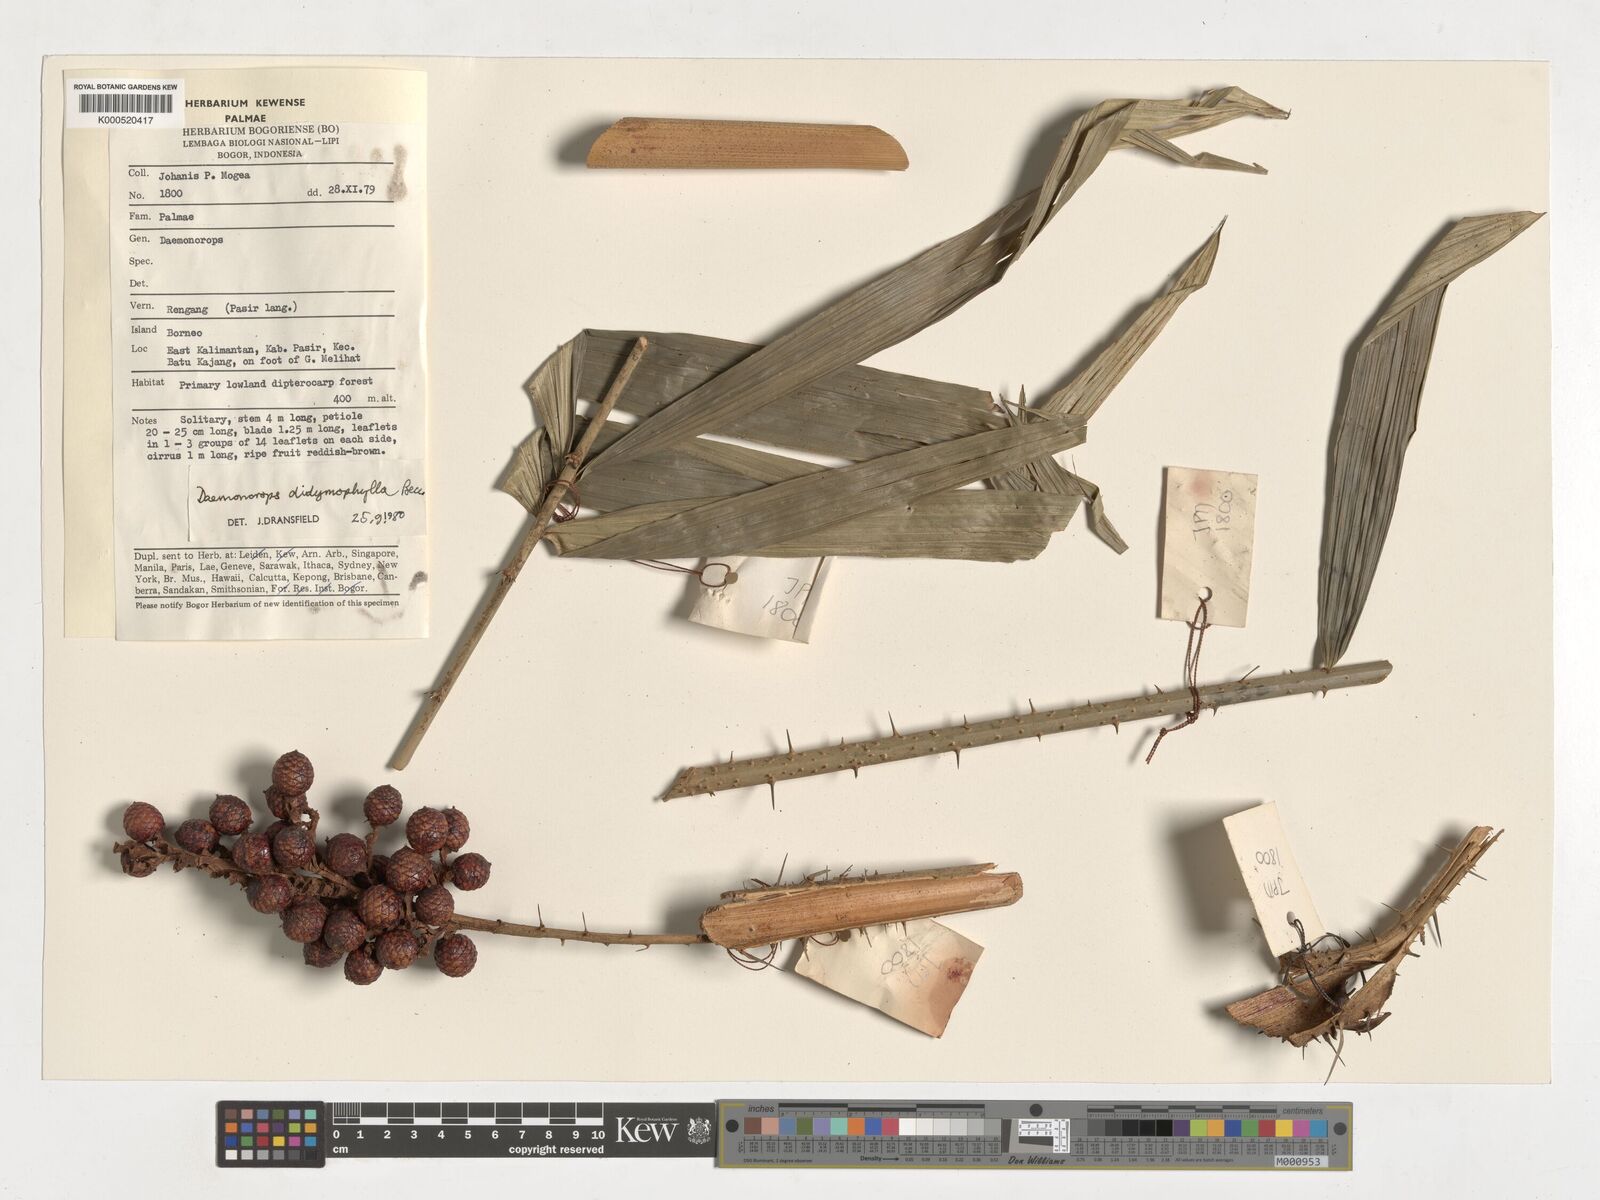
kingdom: Plantae
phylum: Tracheophyta
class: Liliopsida
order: Arecales
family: Arecaceae
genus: Calamus
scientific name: Calamus gracilipes
